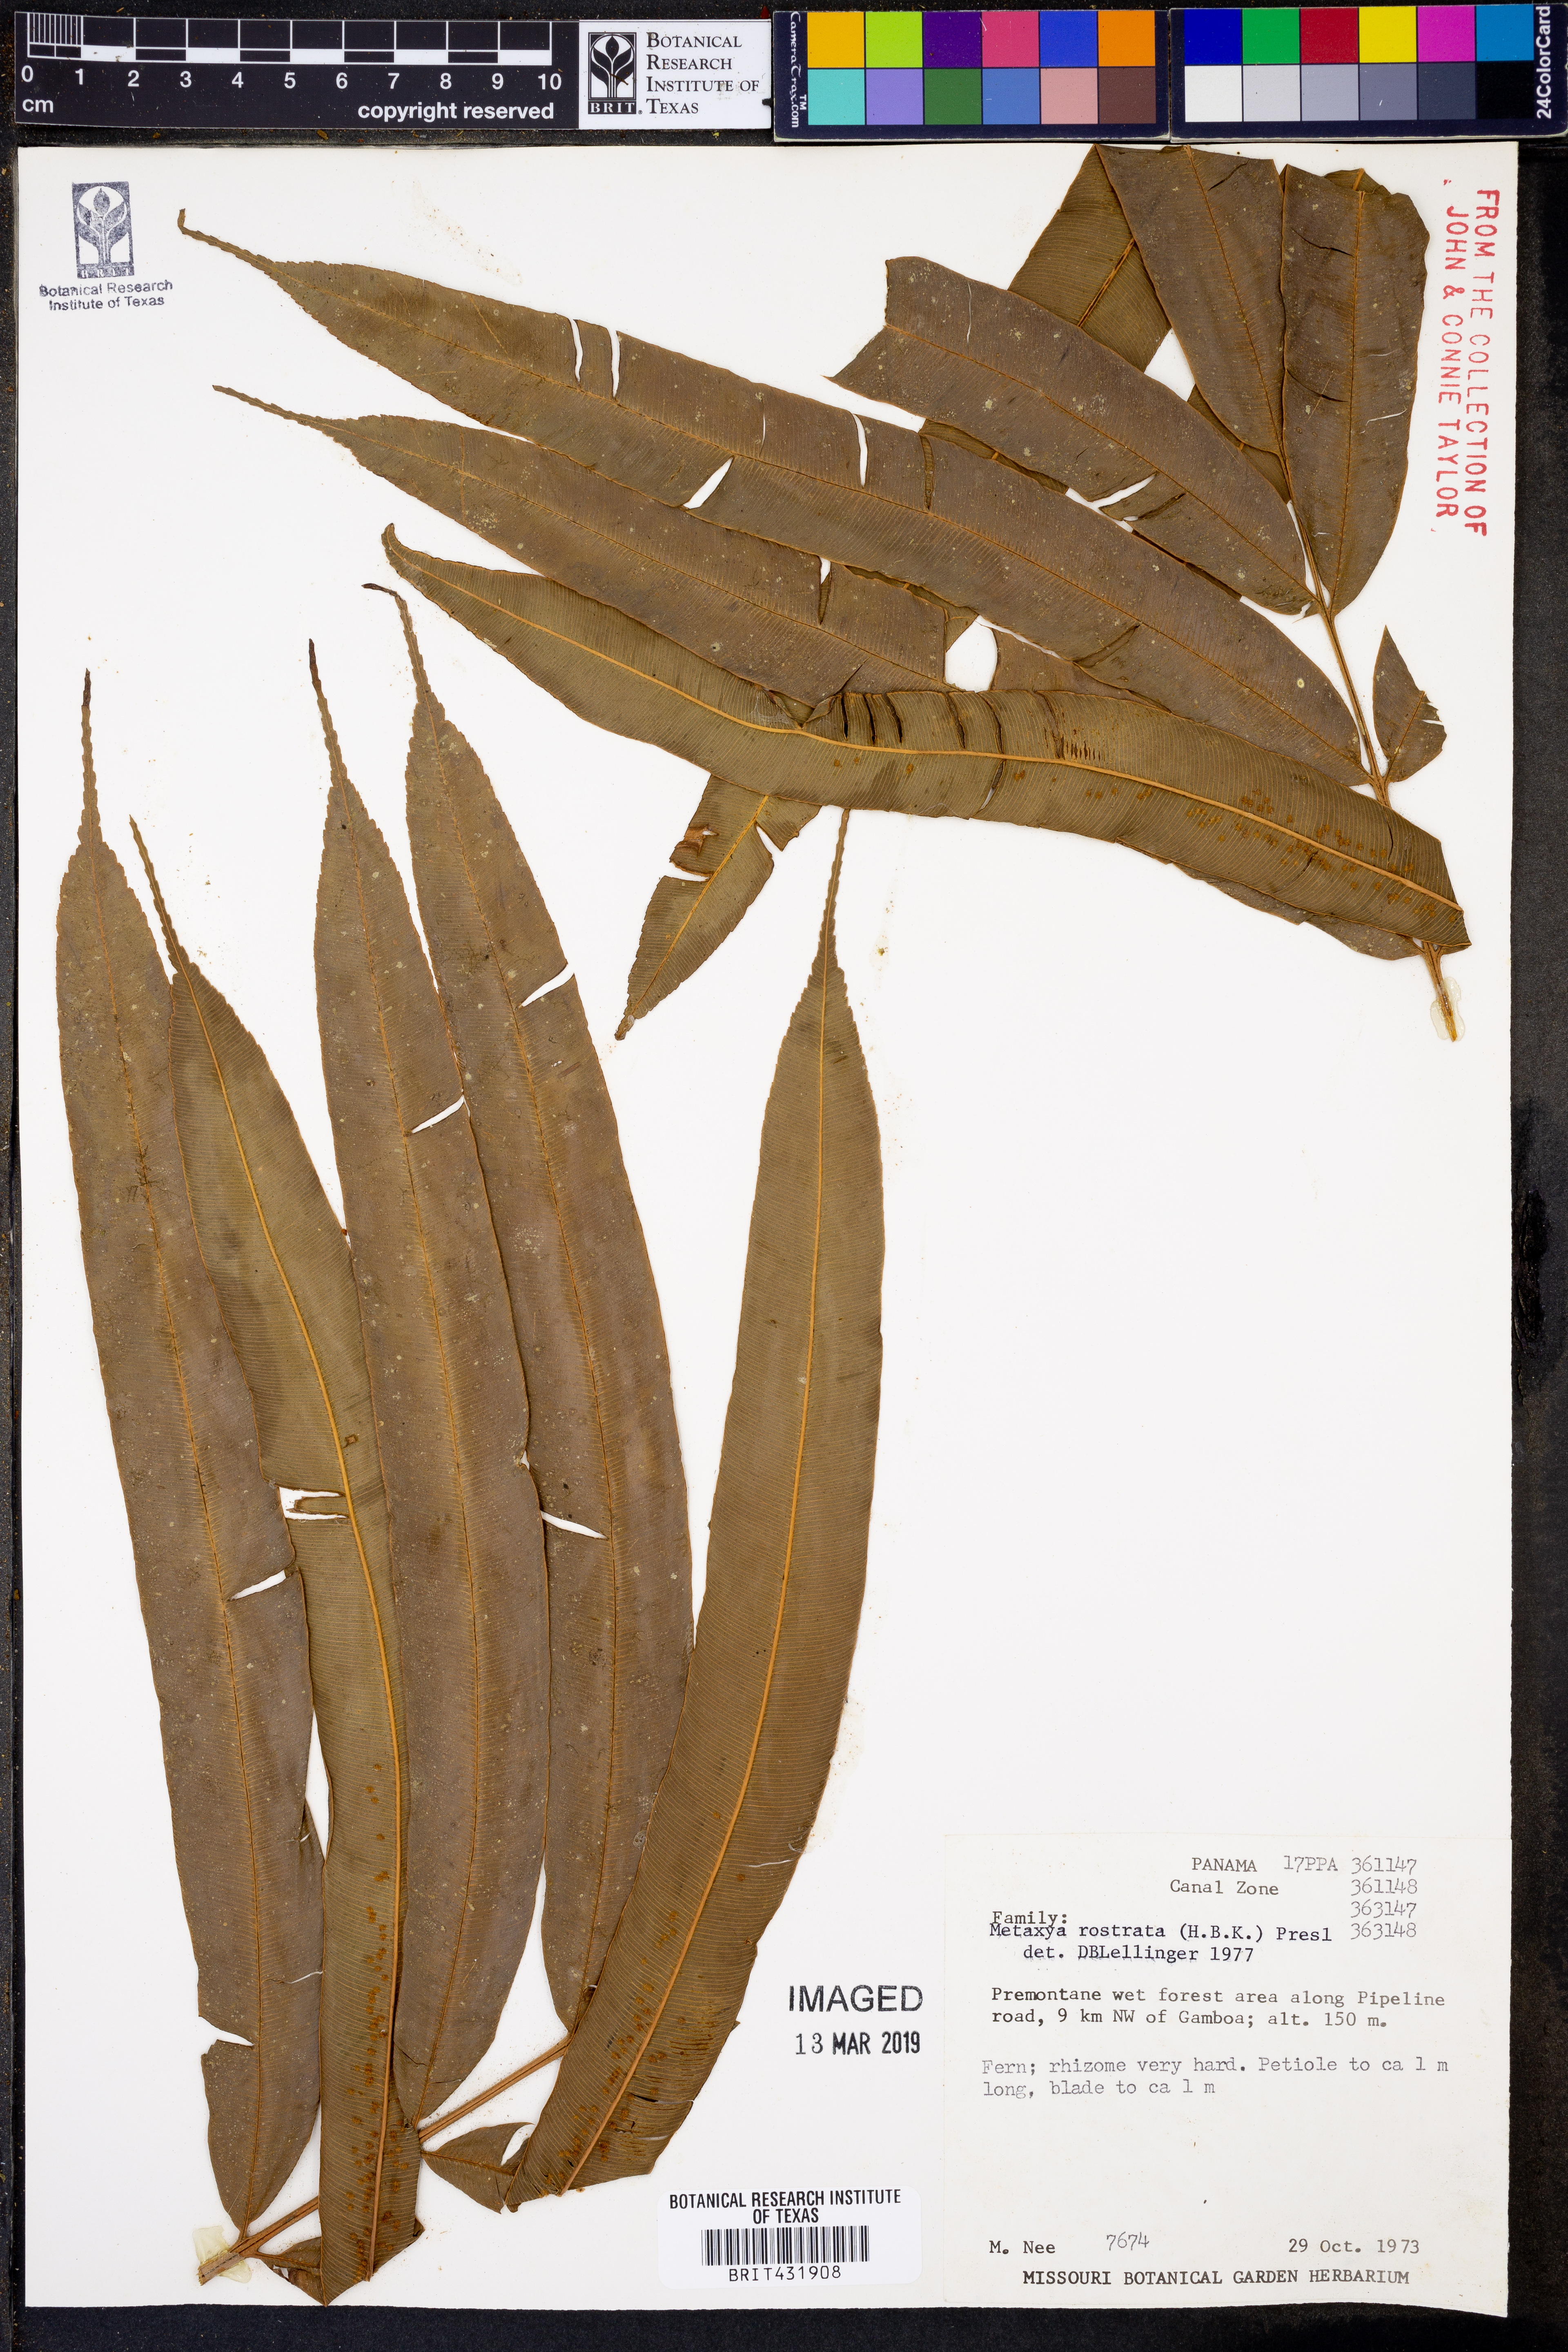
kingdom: Plantae
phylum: Tracheophyta
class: Polypodiopsida
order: Cyatheales
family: Metaxyaceae
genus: Metaxya
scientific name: Metaxya rostrata
